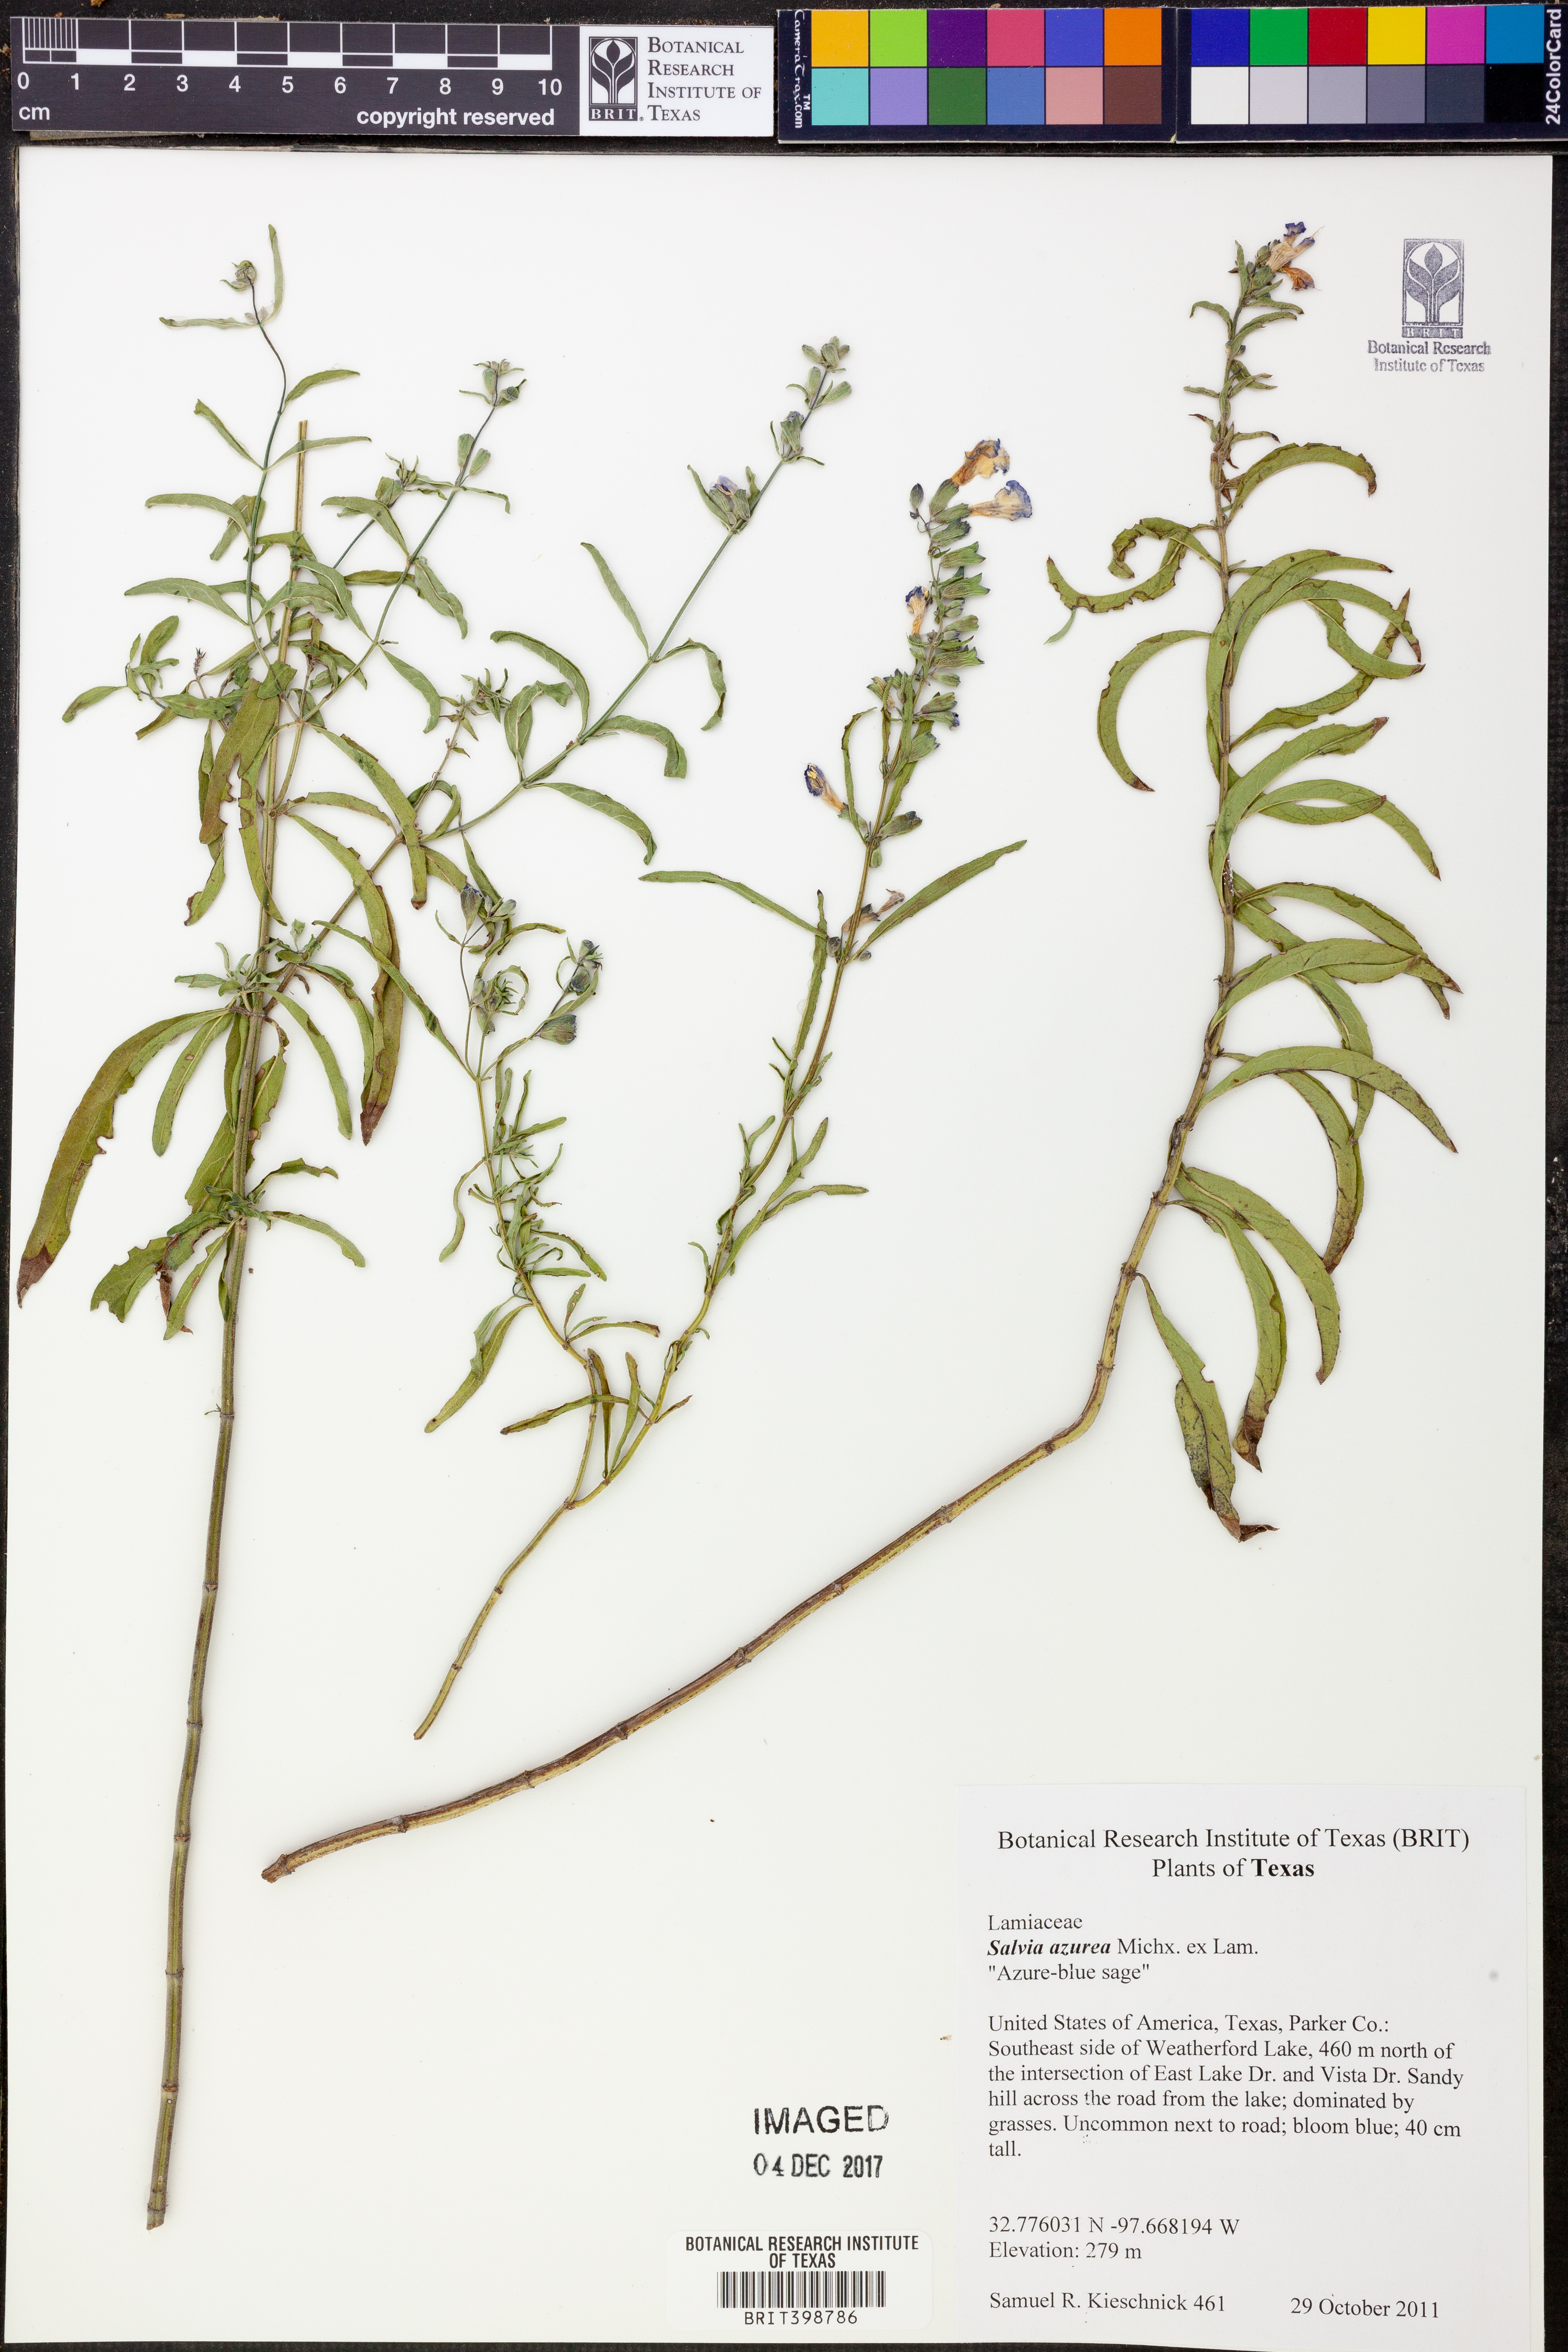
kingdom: Plantae
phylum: Tracheophyta
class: Magnoliopsida
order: Lamiales
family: Lamiaceae
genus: Salvia
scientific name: Salvia azurea
